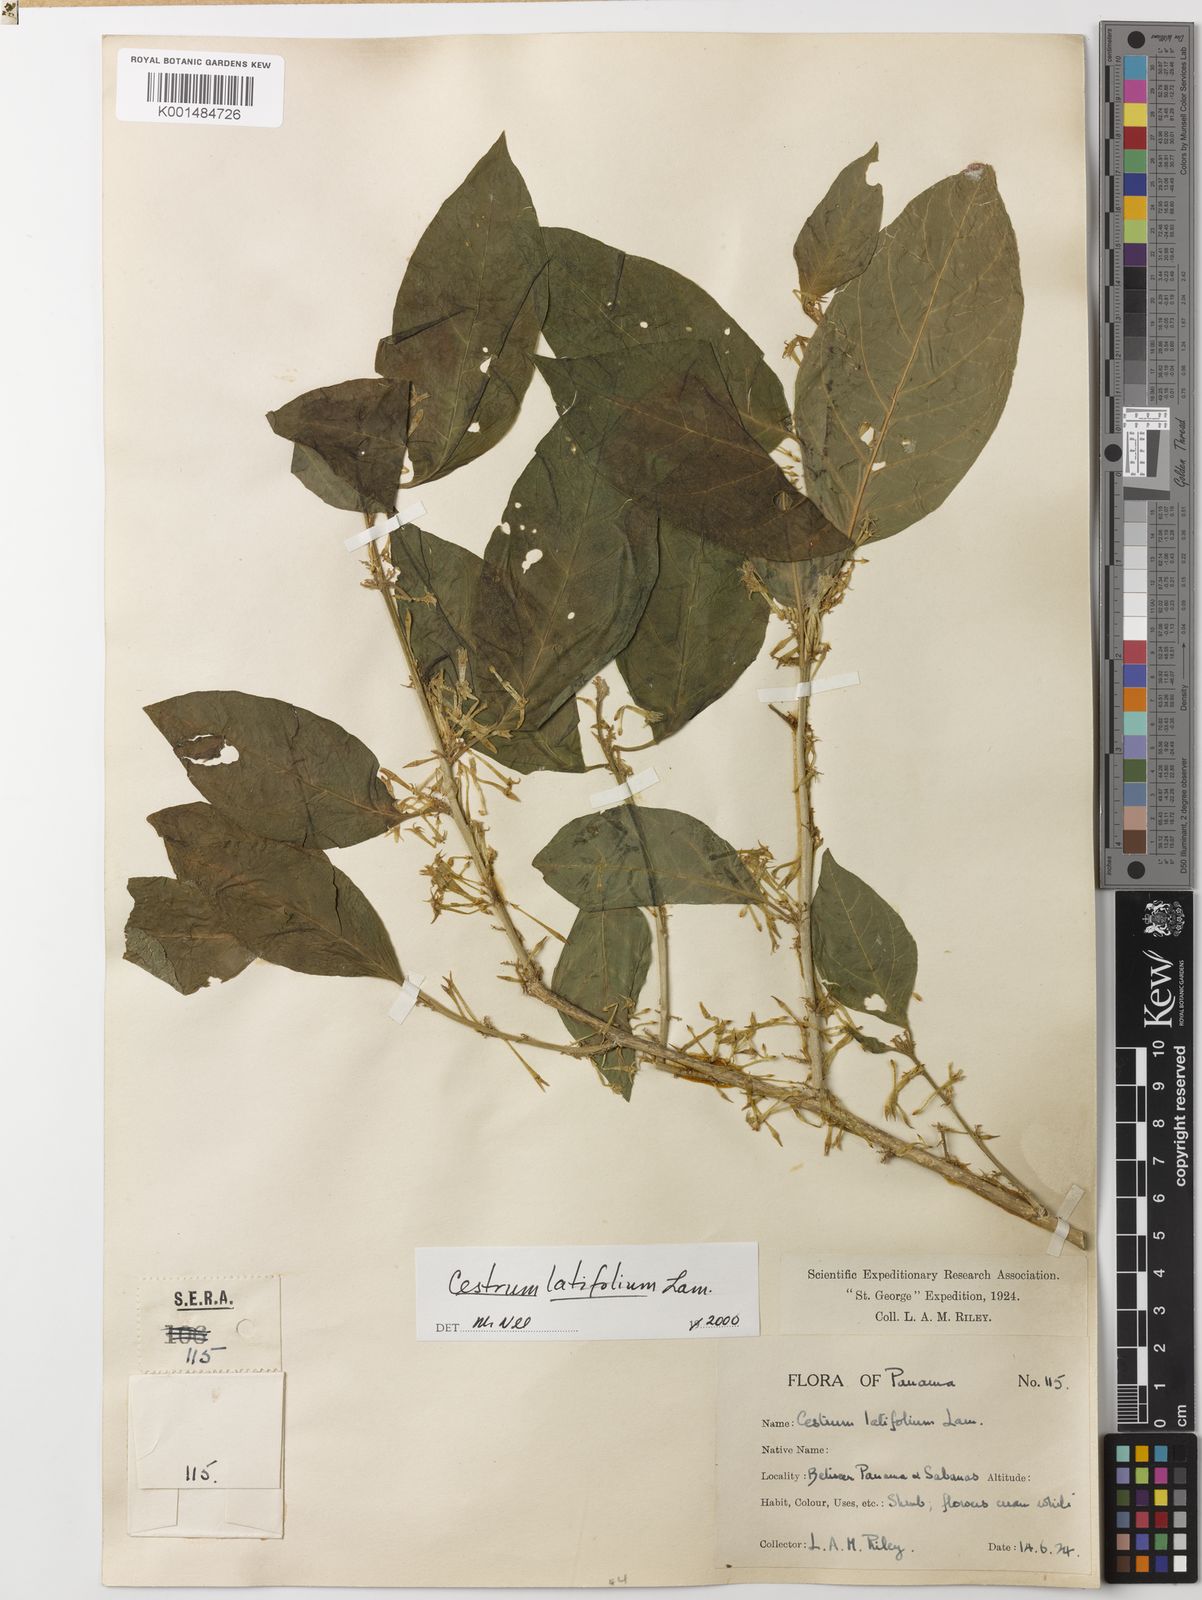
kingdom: Plantae
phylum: Tracheophyta
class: Magnoliopsida
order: Solanales
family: Solanaceae
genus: Cestrum
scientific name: Cestrum latifolium
